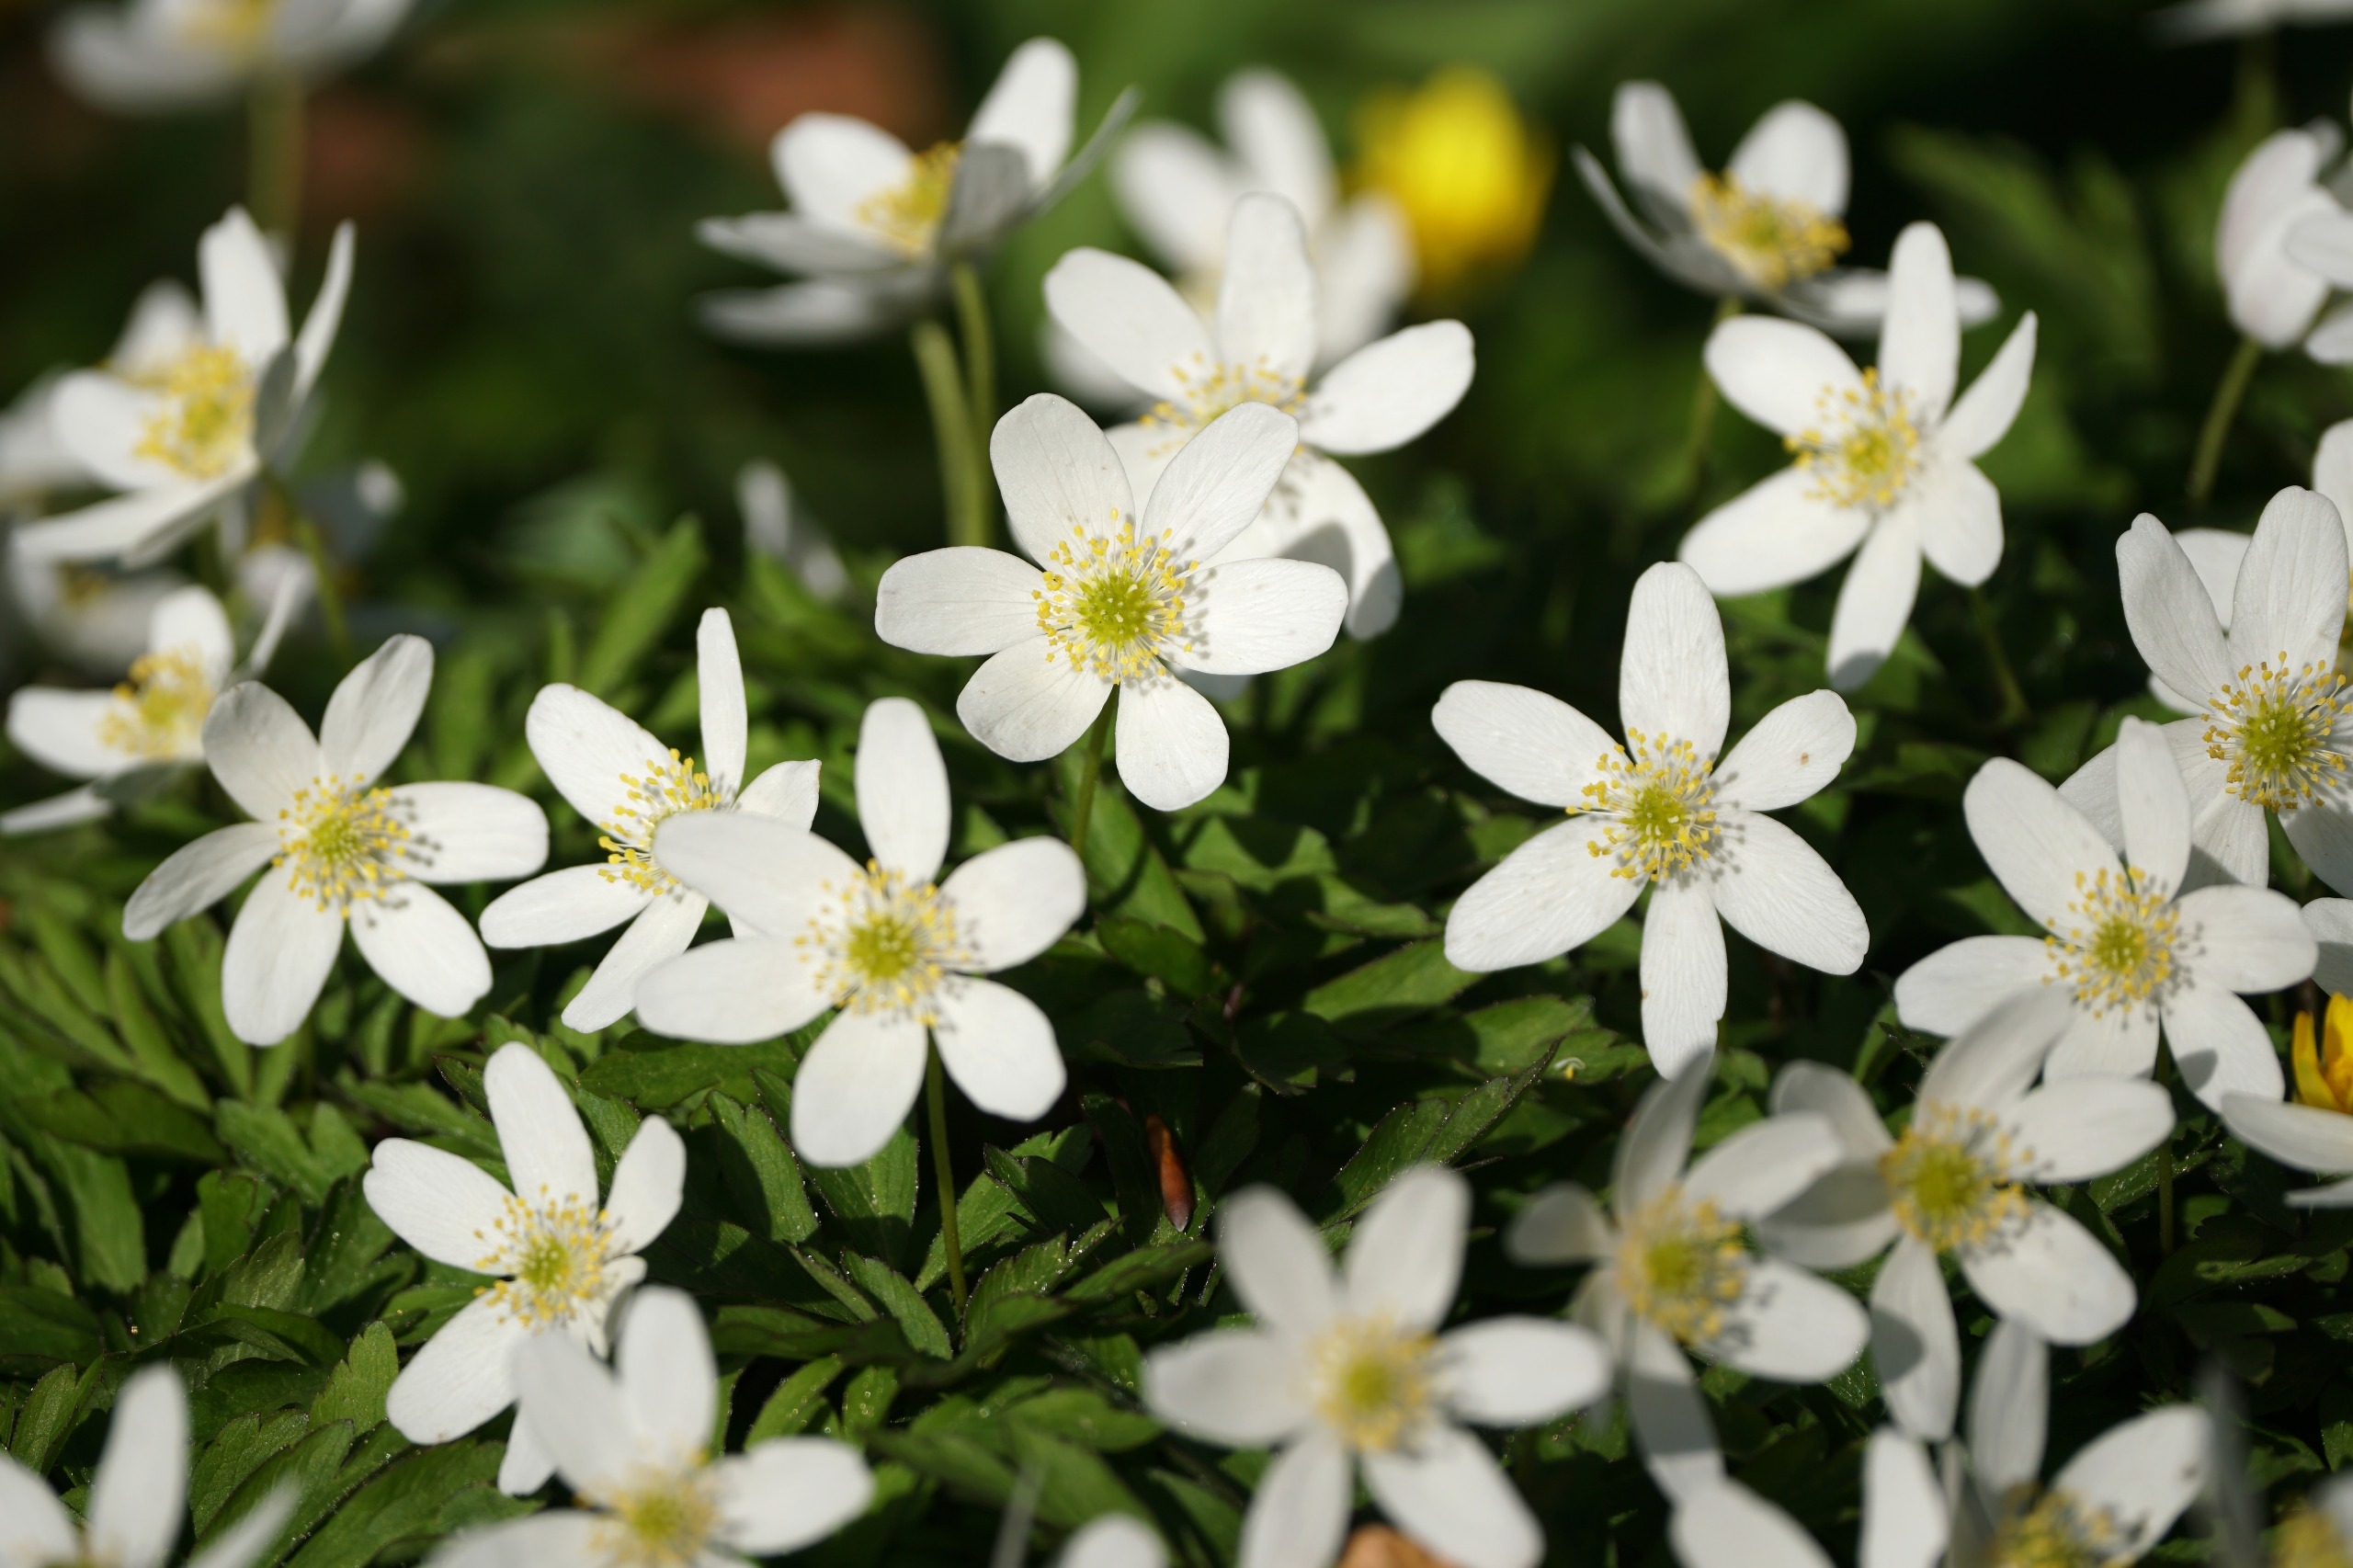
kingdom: Plantae
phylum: Tracheophyta
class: Magnoliopsida
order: Ranunculales
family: Ranunculaceae
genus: Anemone
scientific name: Anemone nemorosa
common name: Hvid anemone
